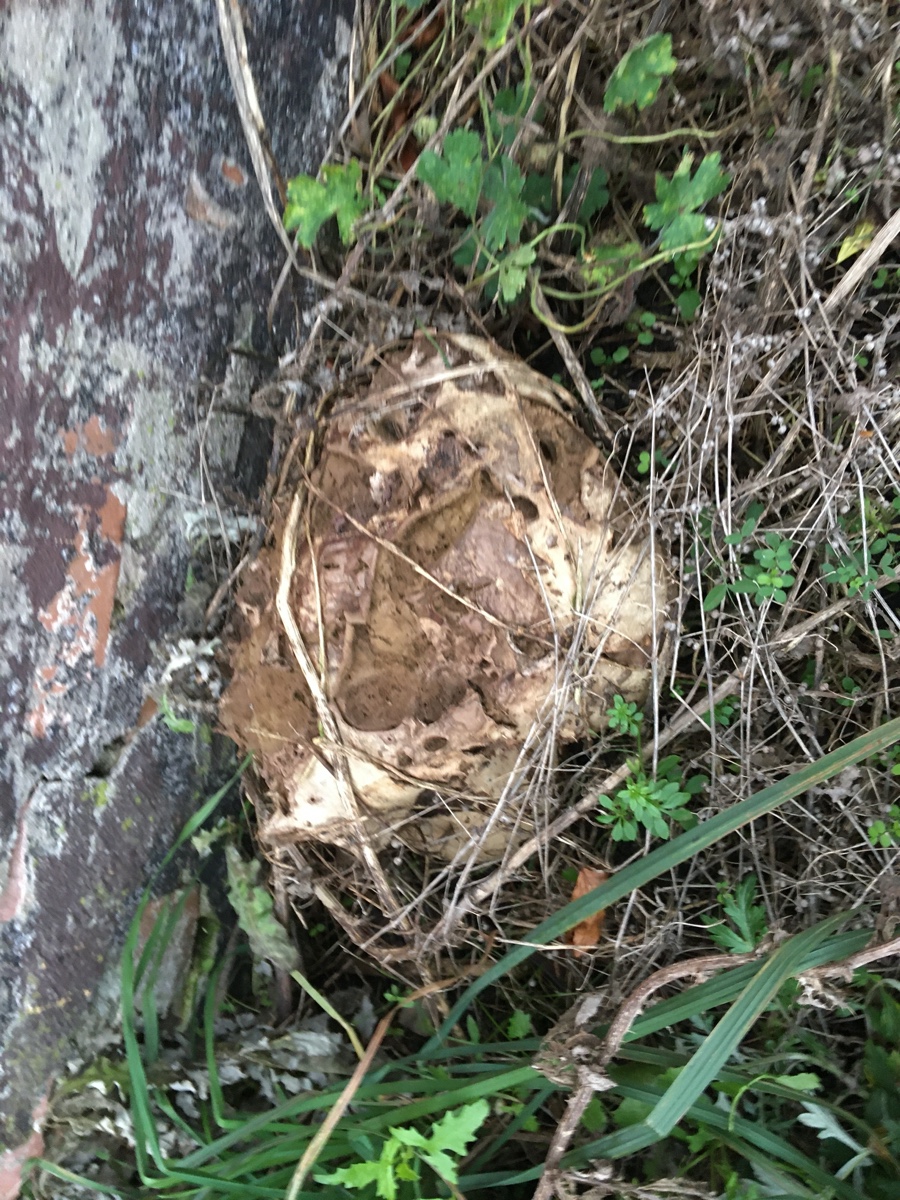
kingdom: Fungi
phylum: Basidiomycota
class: Agaricomycetes
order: Agaricales
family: Lycoperdaceae
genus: Calvatia
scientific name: Calvatia gigantea
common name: kæmpestøvbold
